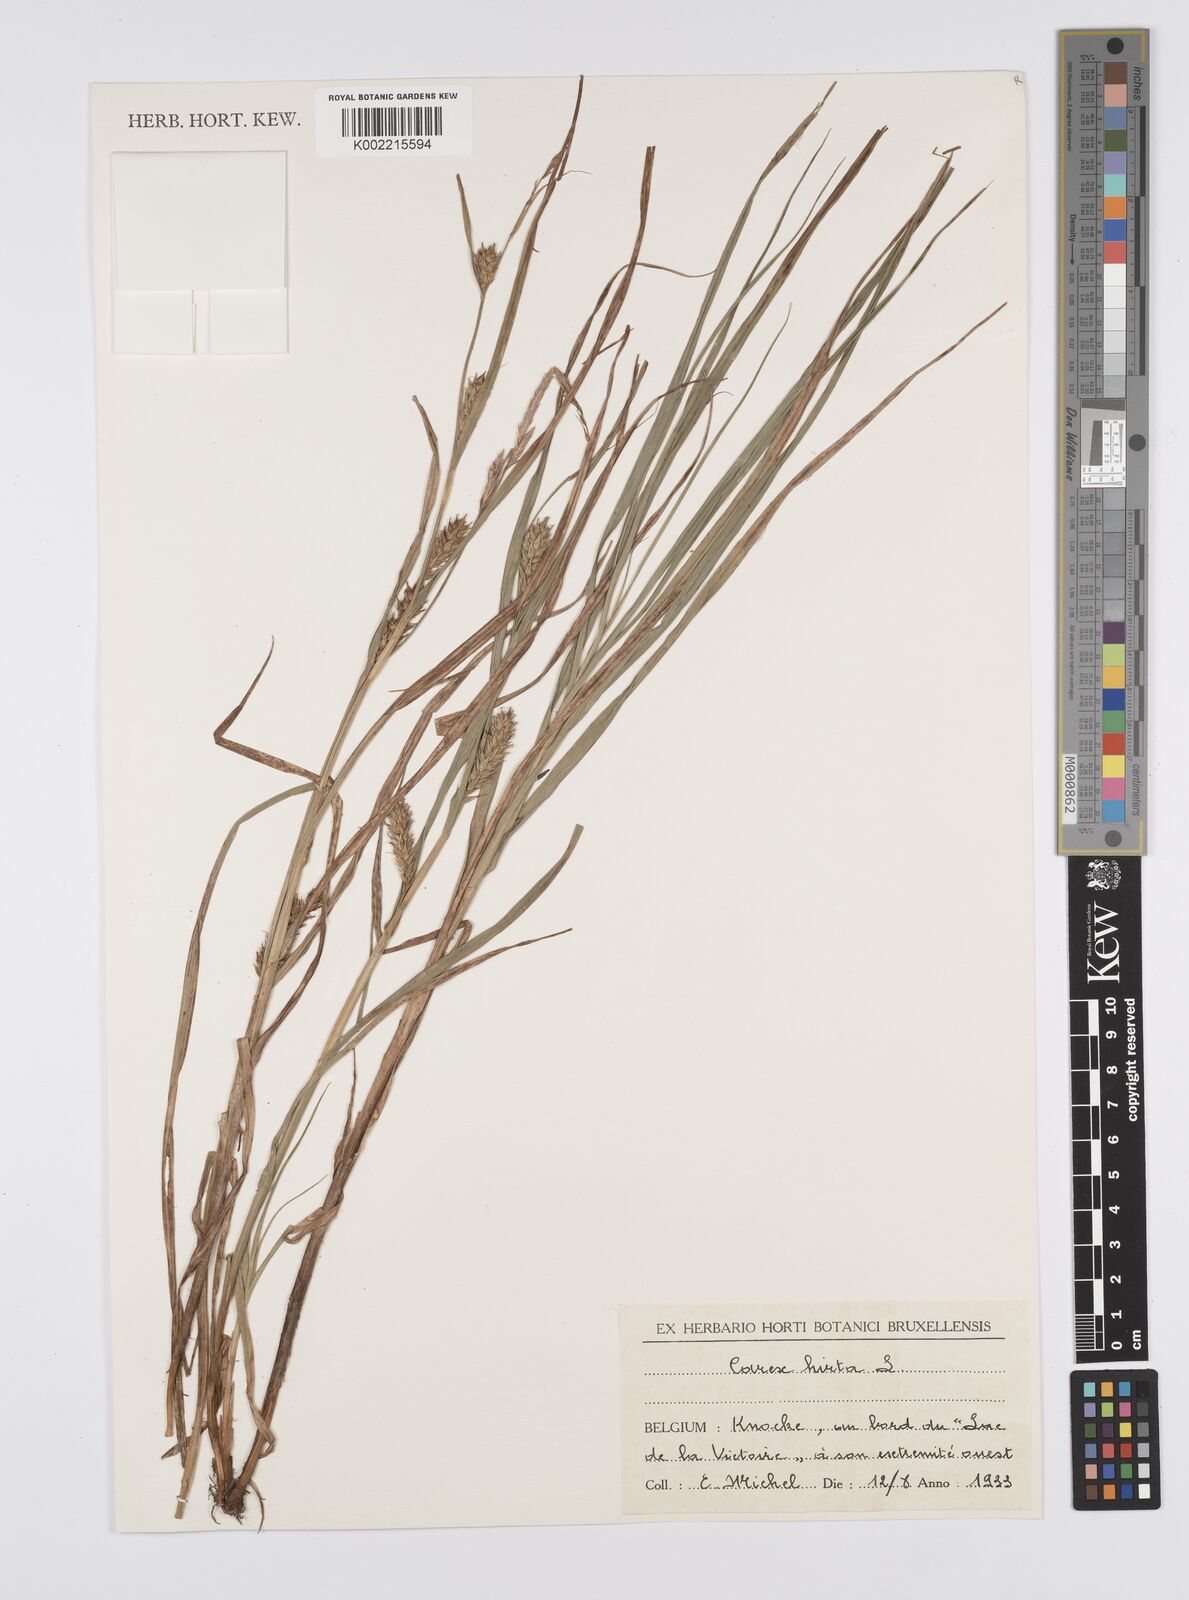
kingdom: Plantae
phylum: Tracheophyta
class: Liliopsida
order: Poales
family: Cyperaceae
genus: Carex
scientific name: Carex hirta
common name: Hairy sedge
